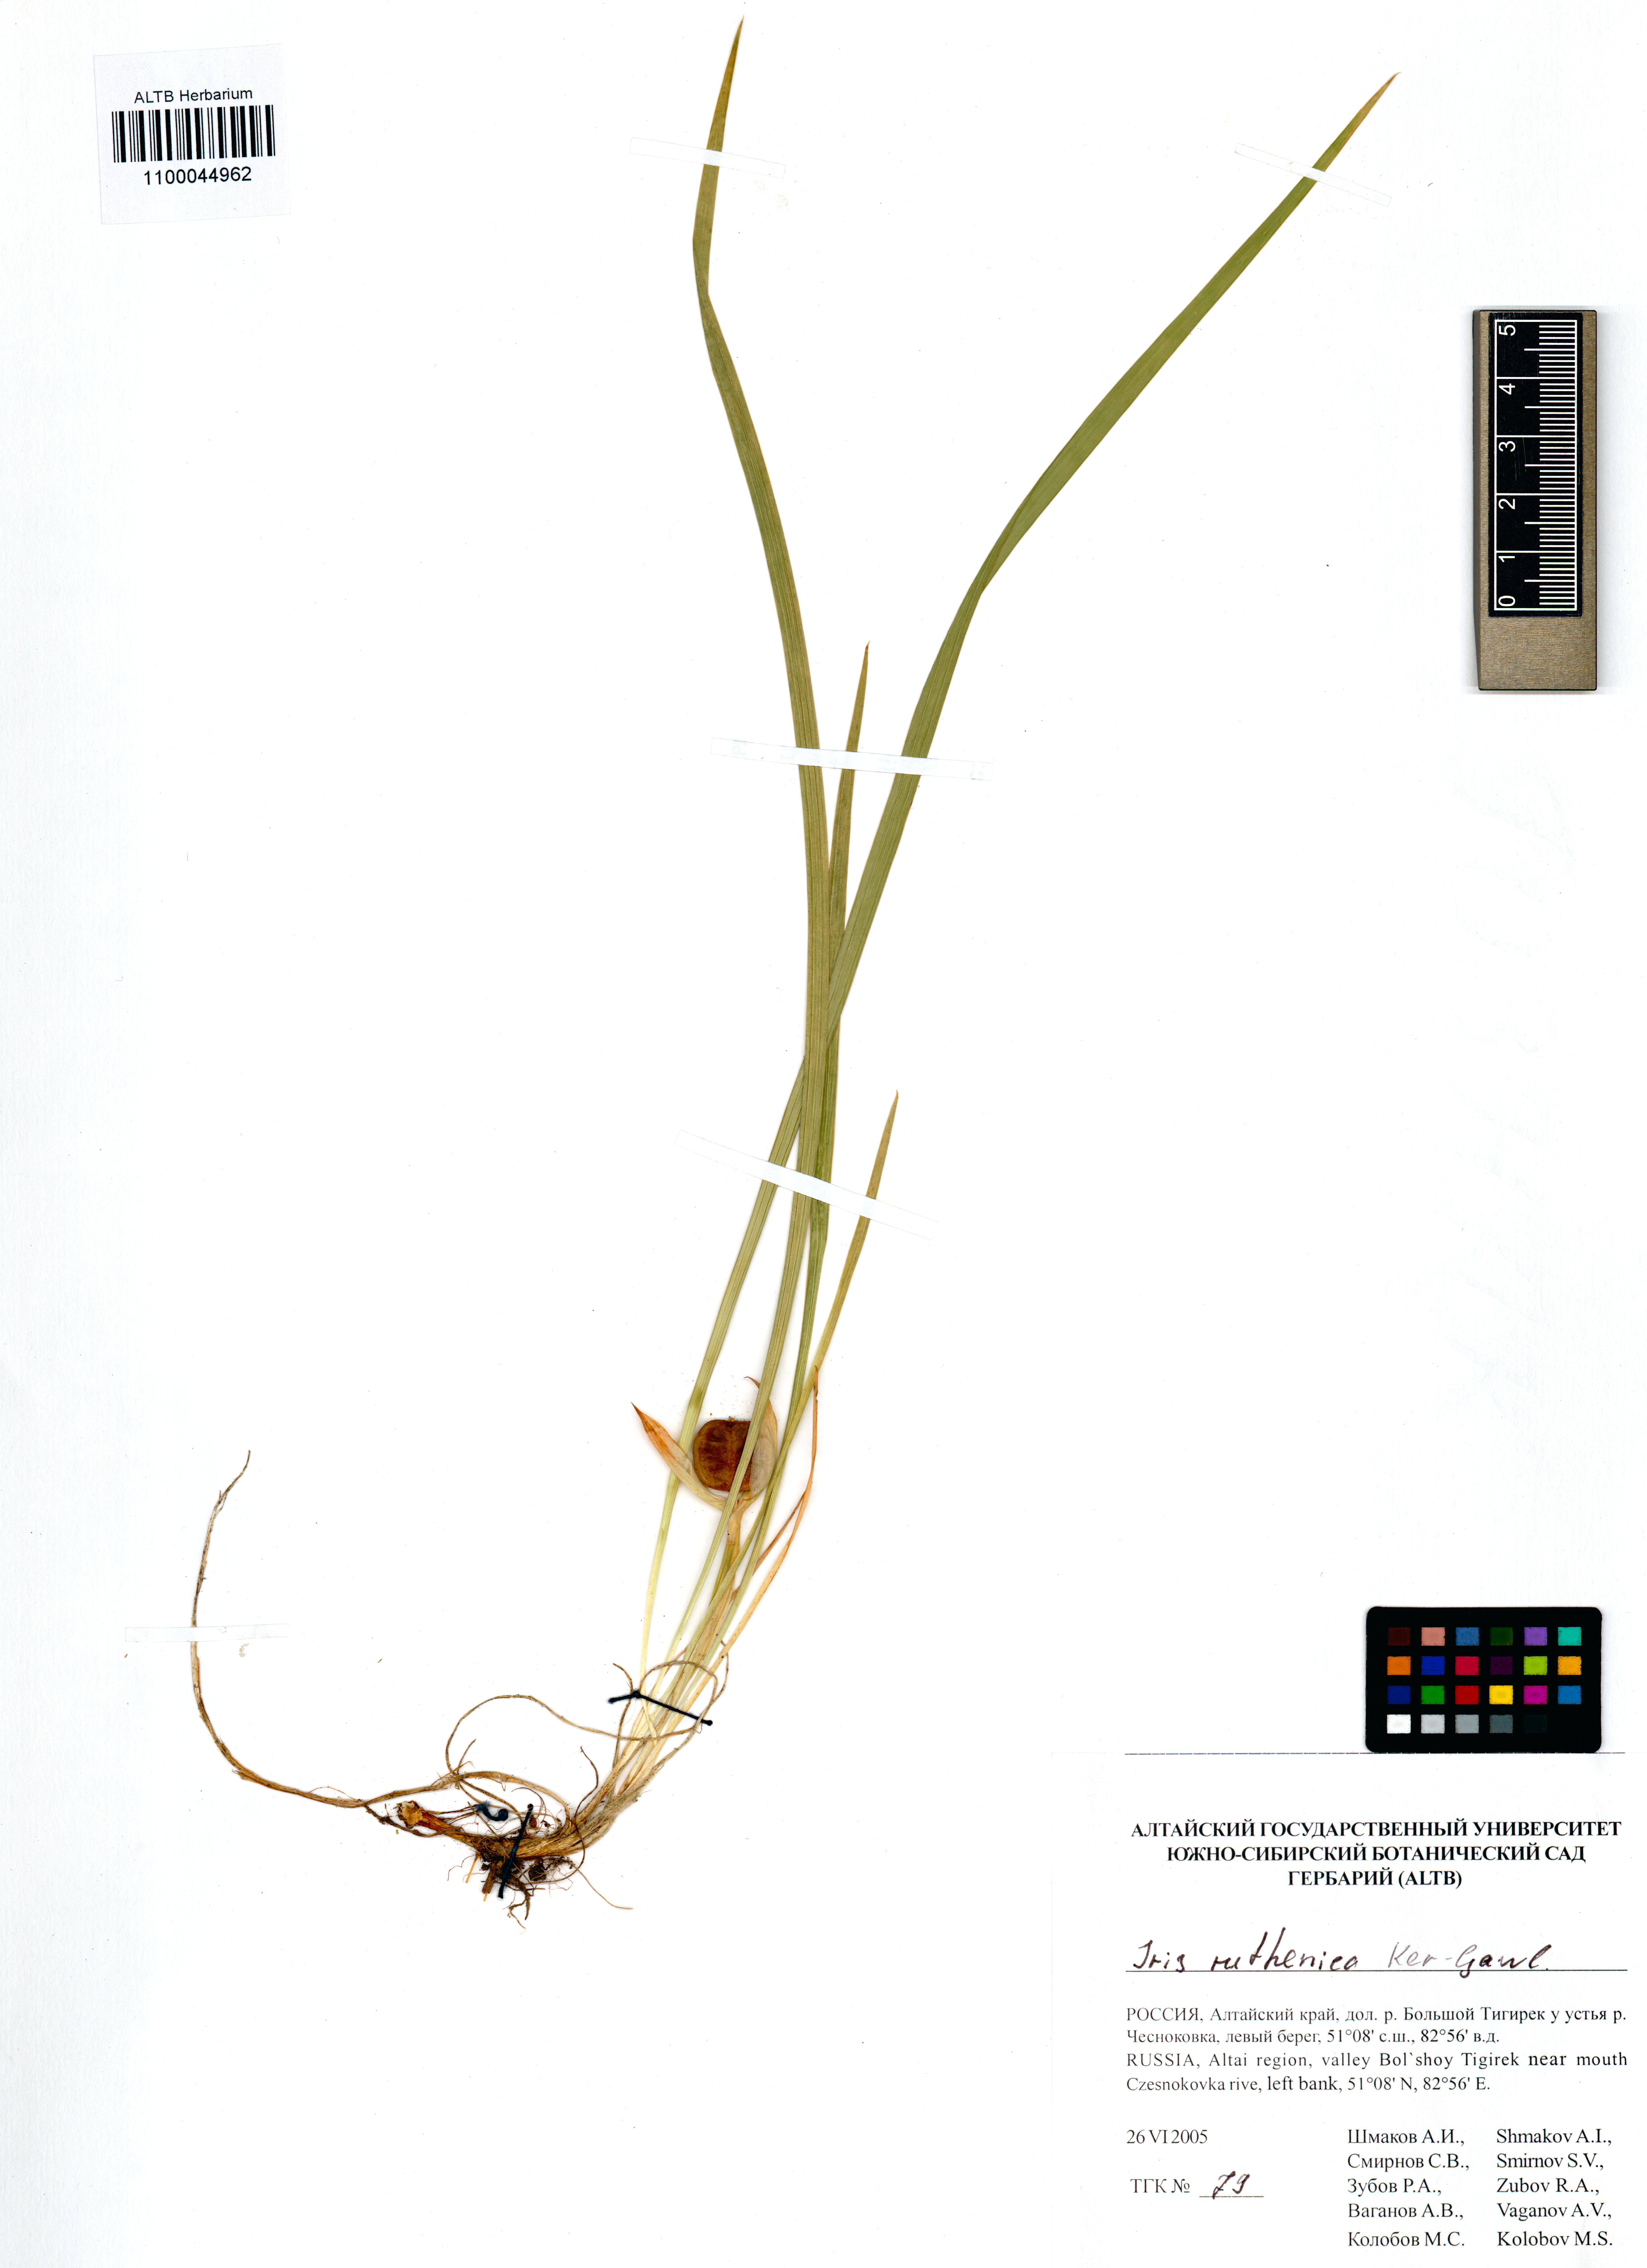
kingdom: Plantae
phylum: Tracheophyta
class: Liliopsida
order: Asparagales
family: Iridaceae
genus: Iris
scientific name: Iris ruthenica
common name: Purple-bract iris
